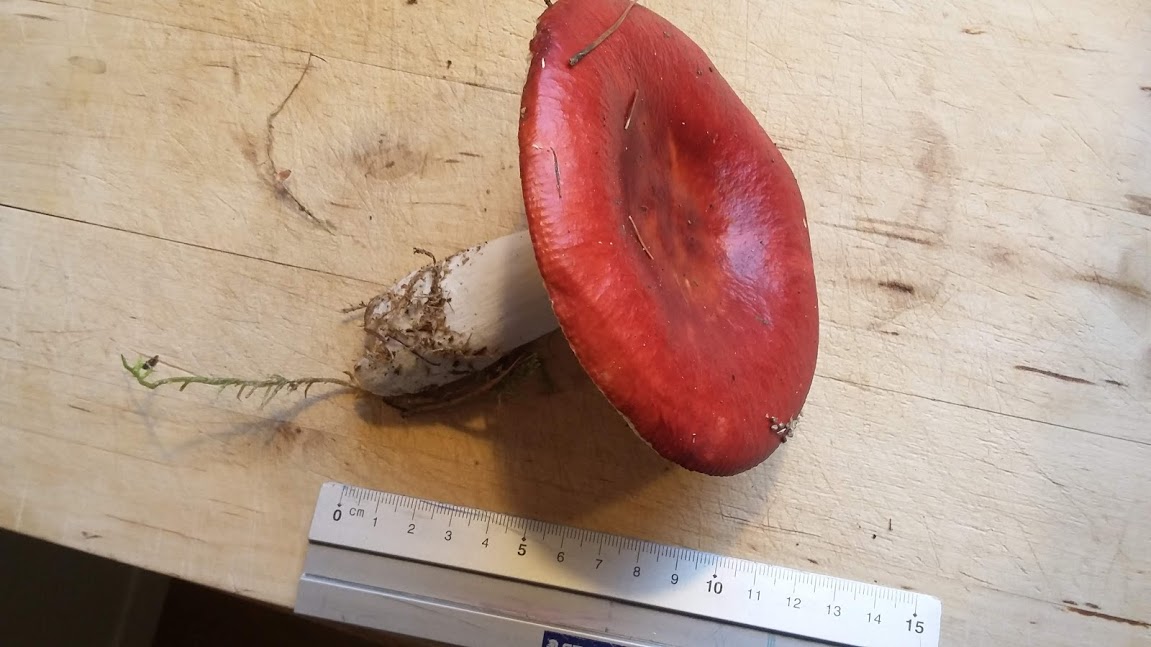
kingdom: Fungi
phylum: Basidiomycota
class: Agaricomycetes
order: Russulales
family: Russulaceae
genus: Russula
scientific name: Russula paludosa
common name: prægtig skørhat
